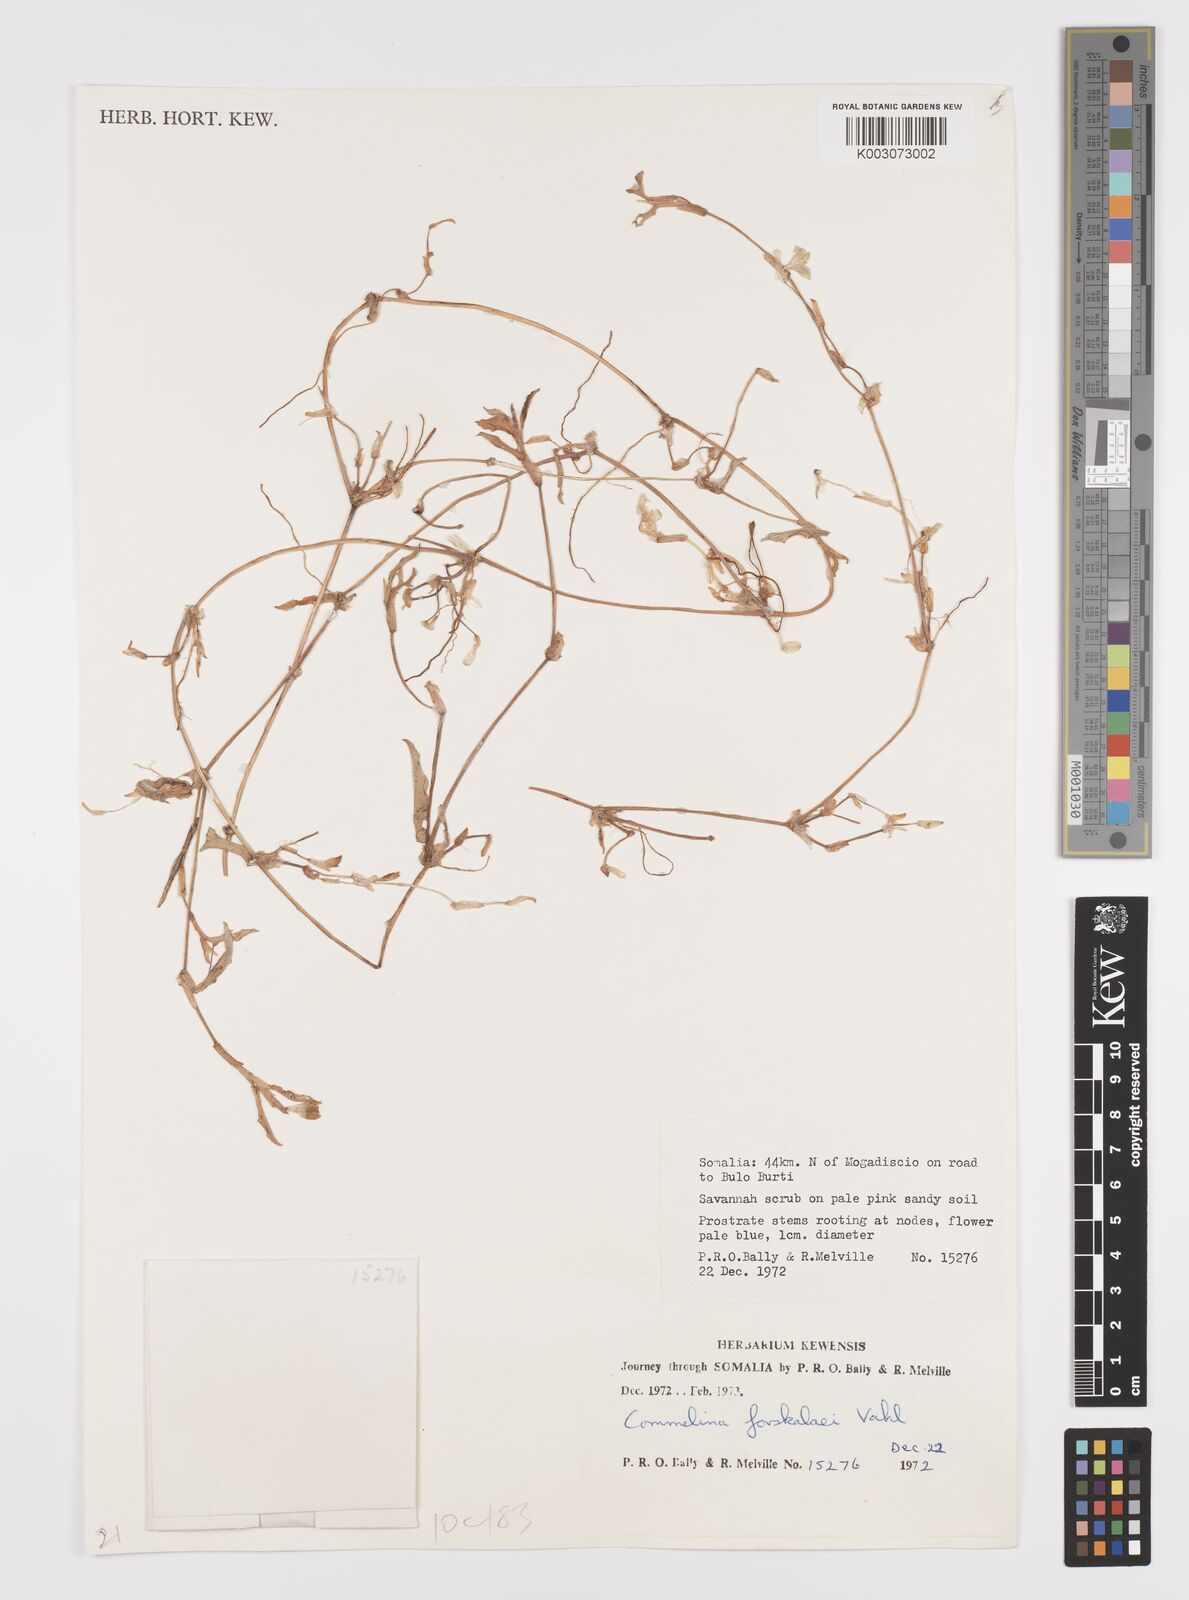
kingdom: Plantae
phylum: Tracheophyta
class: Liliopsida
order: Commelinales
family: Commelinaceae
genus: Commelina
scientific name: Commelina forskaolii
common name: Rat's ear
